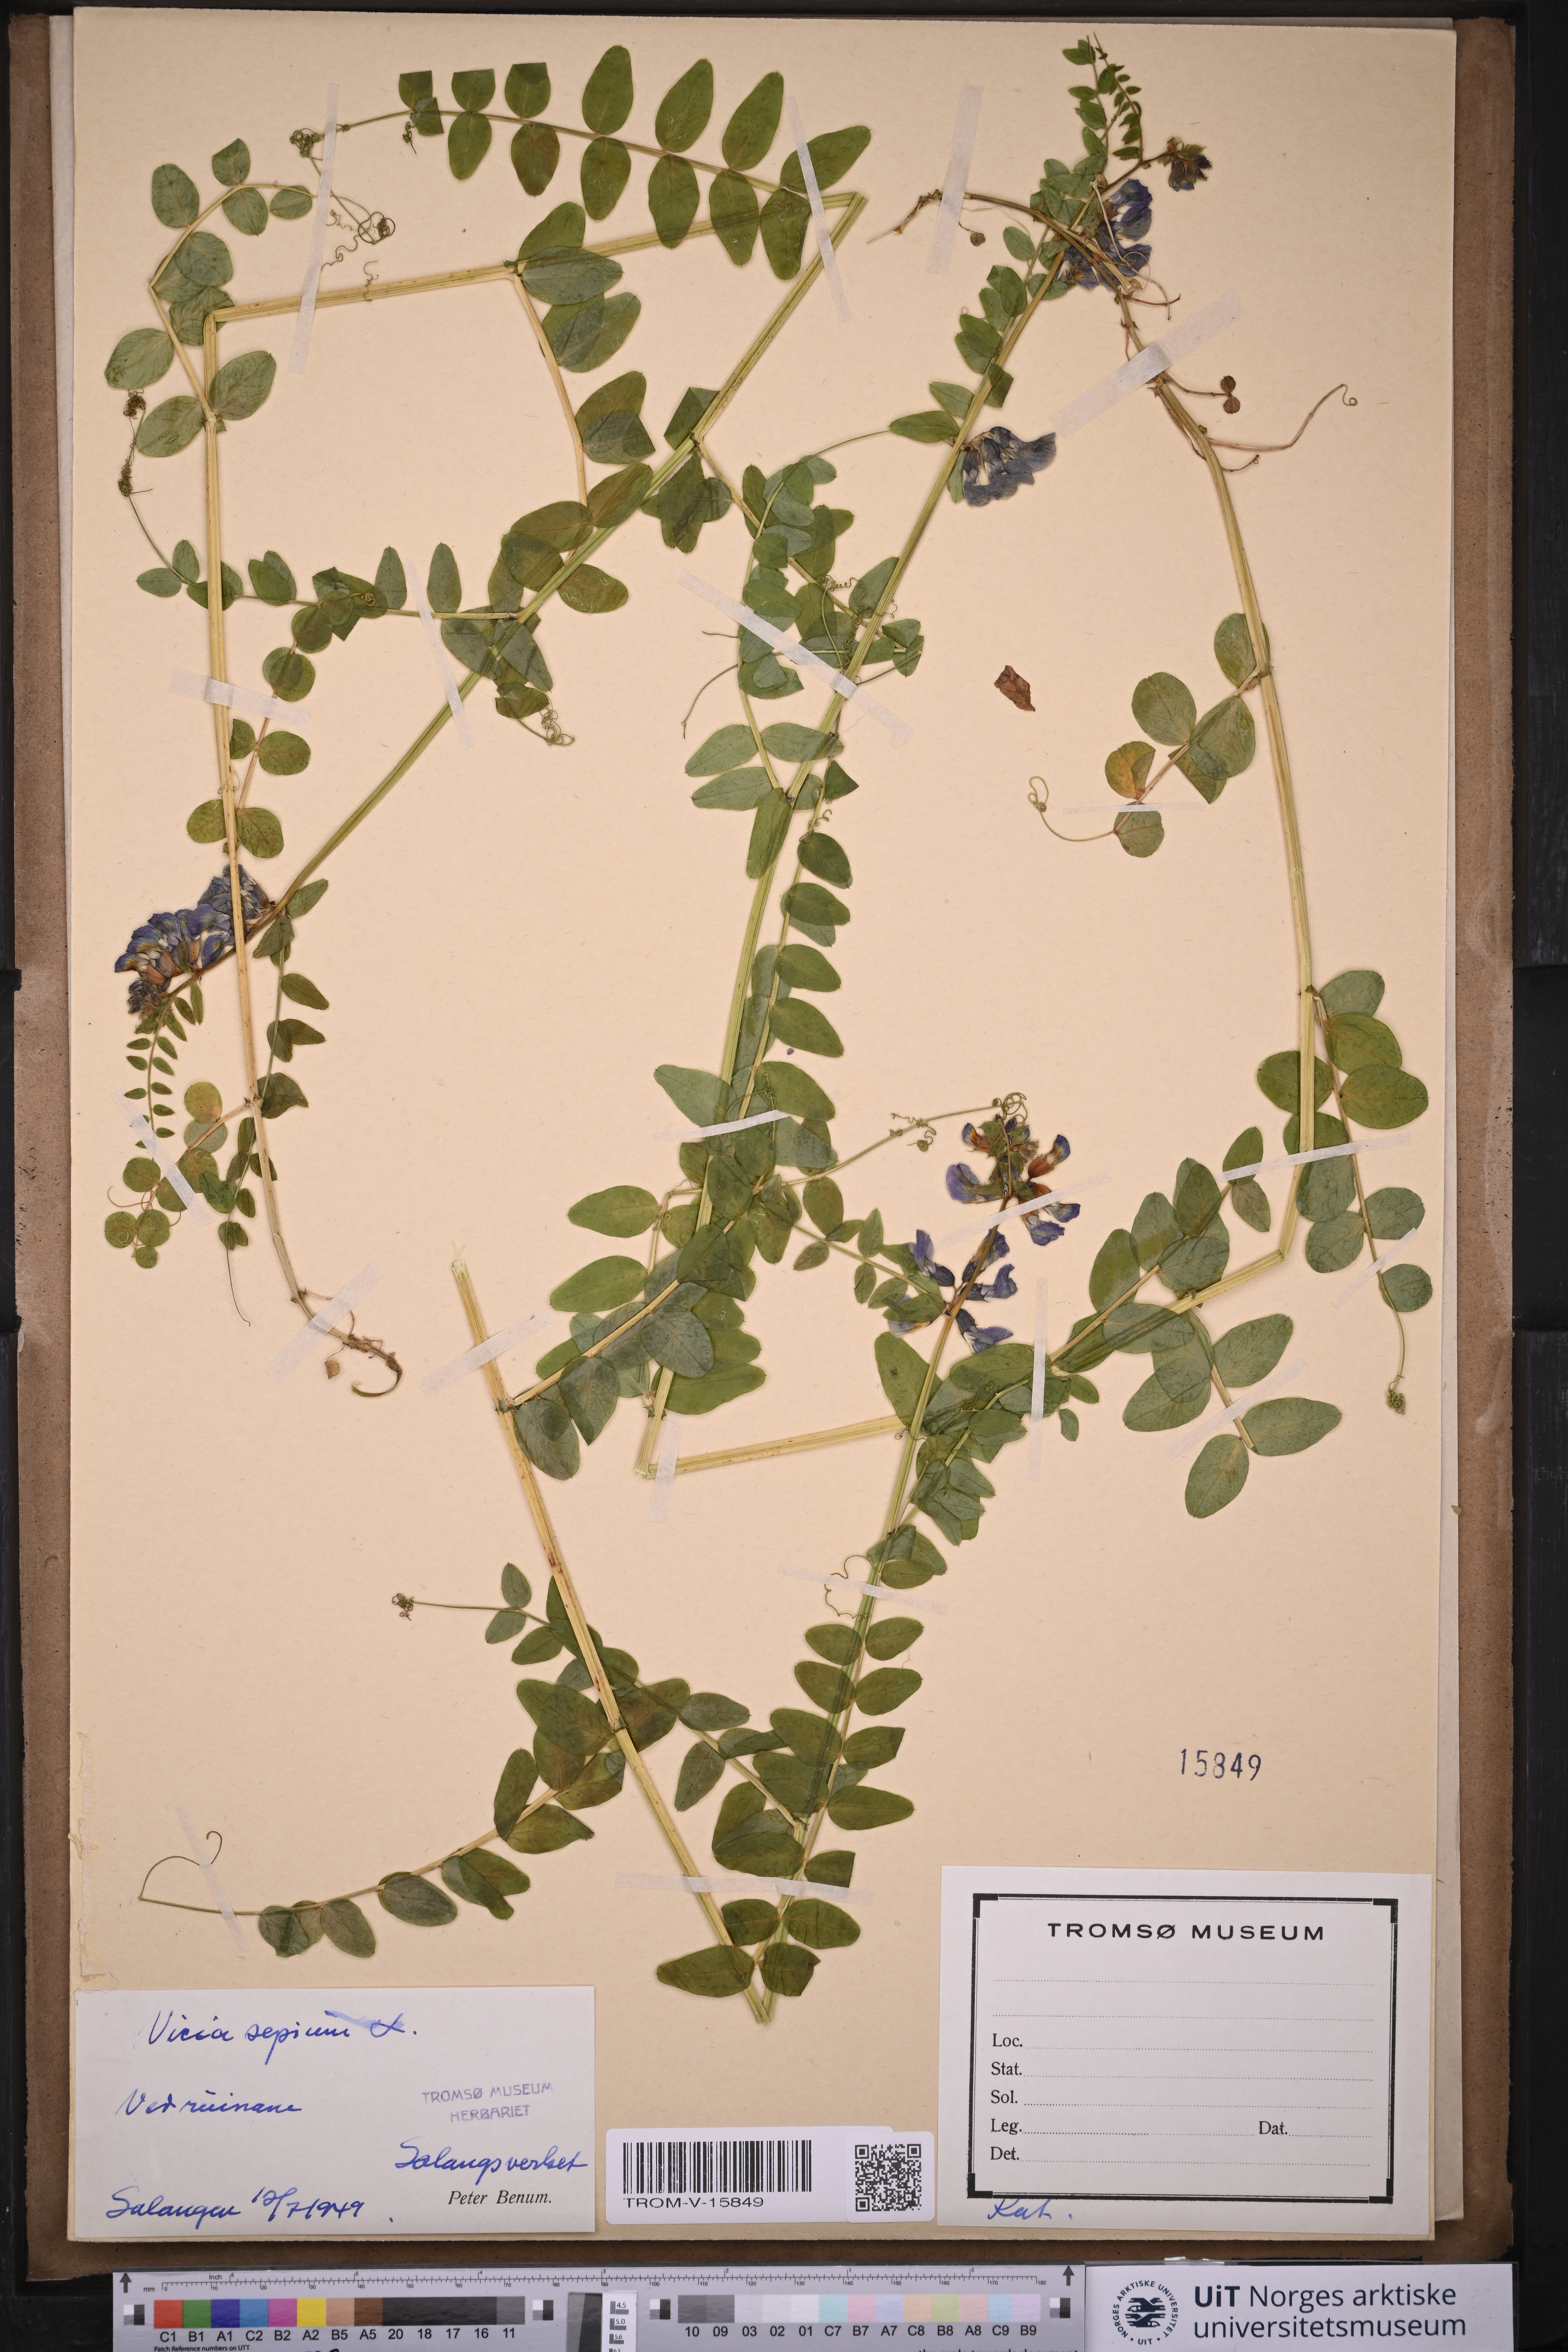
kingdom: Plantae
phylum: Tracheophyta
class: Magnoliopsida
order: Fabales
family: Fabaceae
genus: Vicia
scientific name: Vicia sepium
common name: Bush vetch
